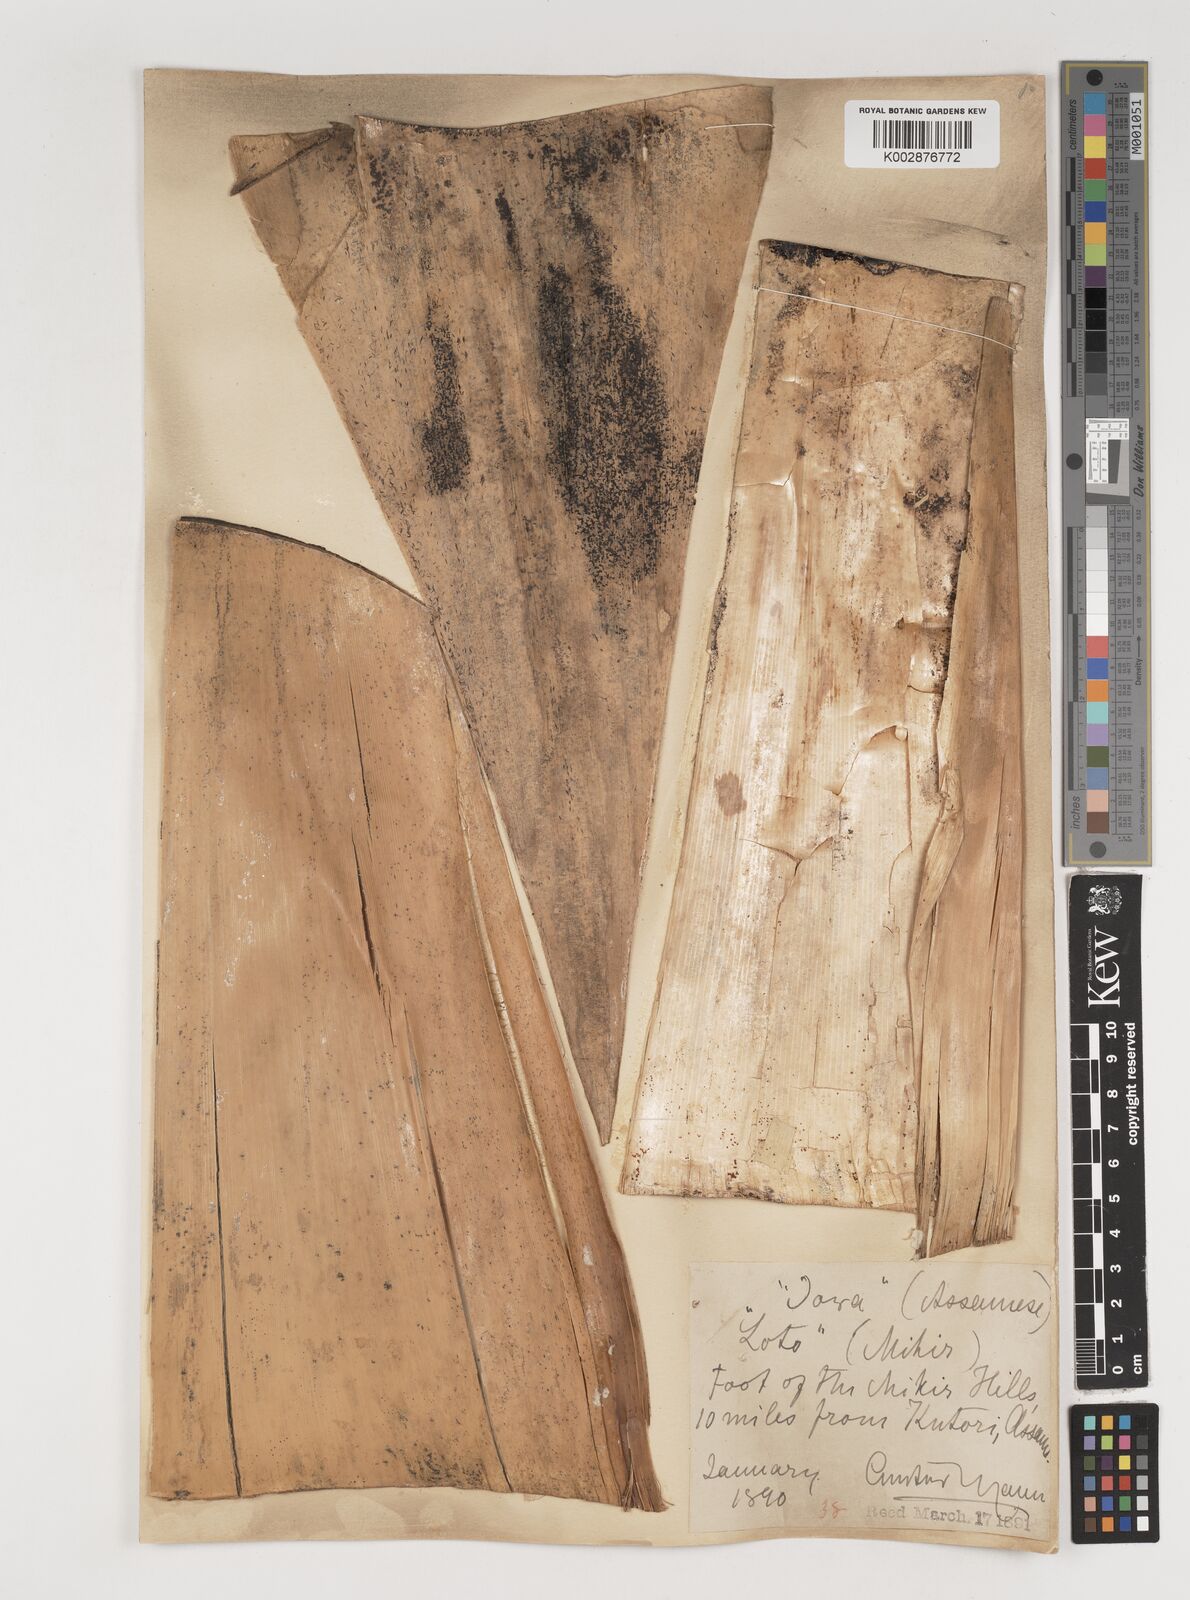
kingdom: Plantae
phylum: Tracheophyta
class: Liliopsida
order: Poales
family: Poaceae
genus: Bambusa
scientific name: Bambusa pallida
